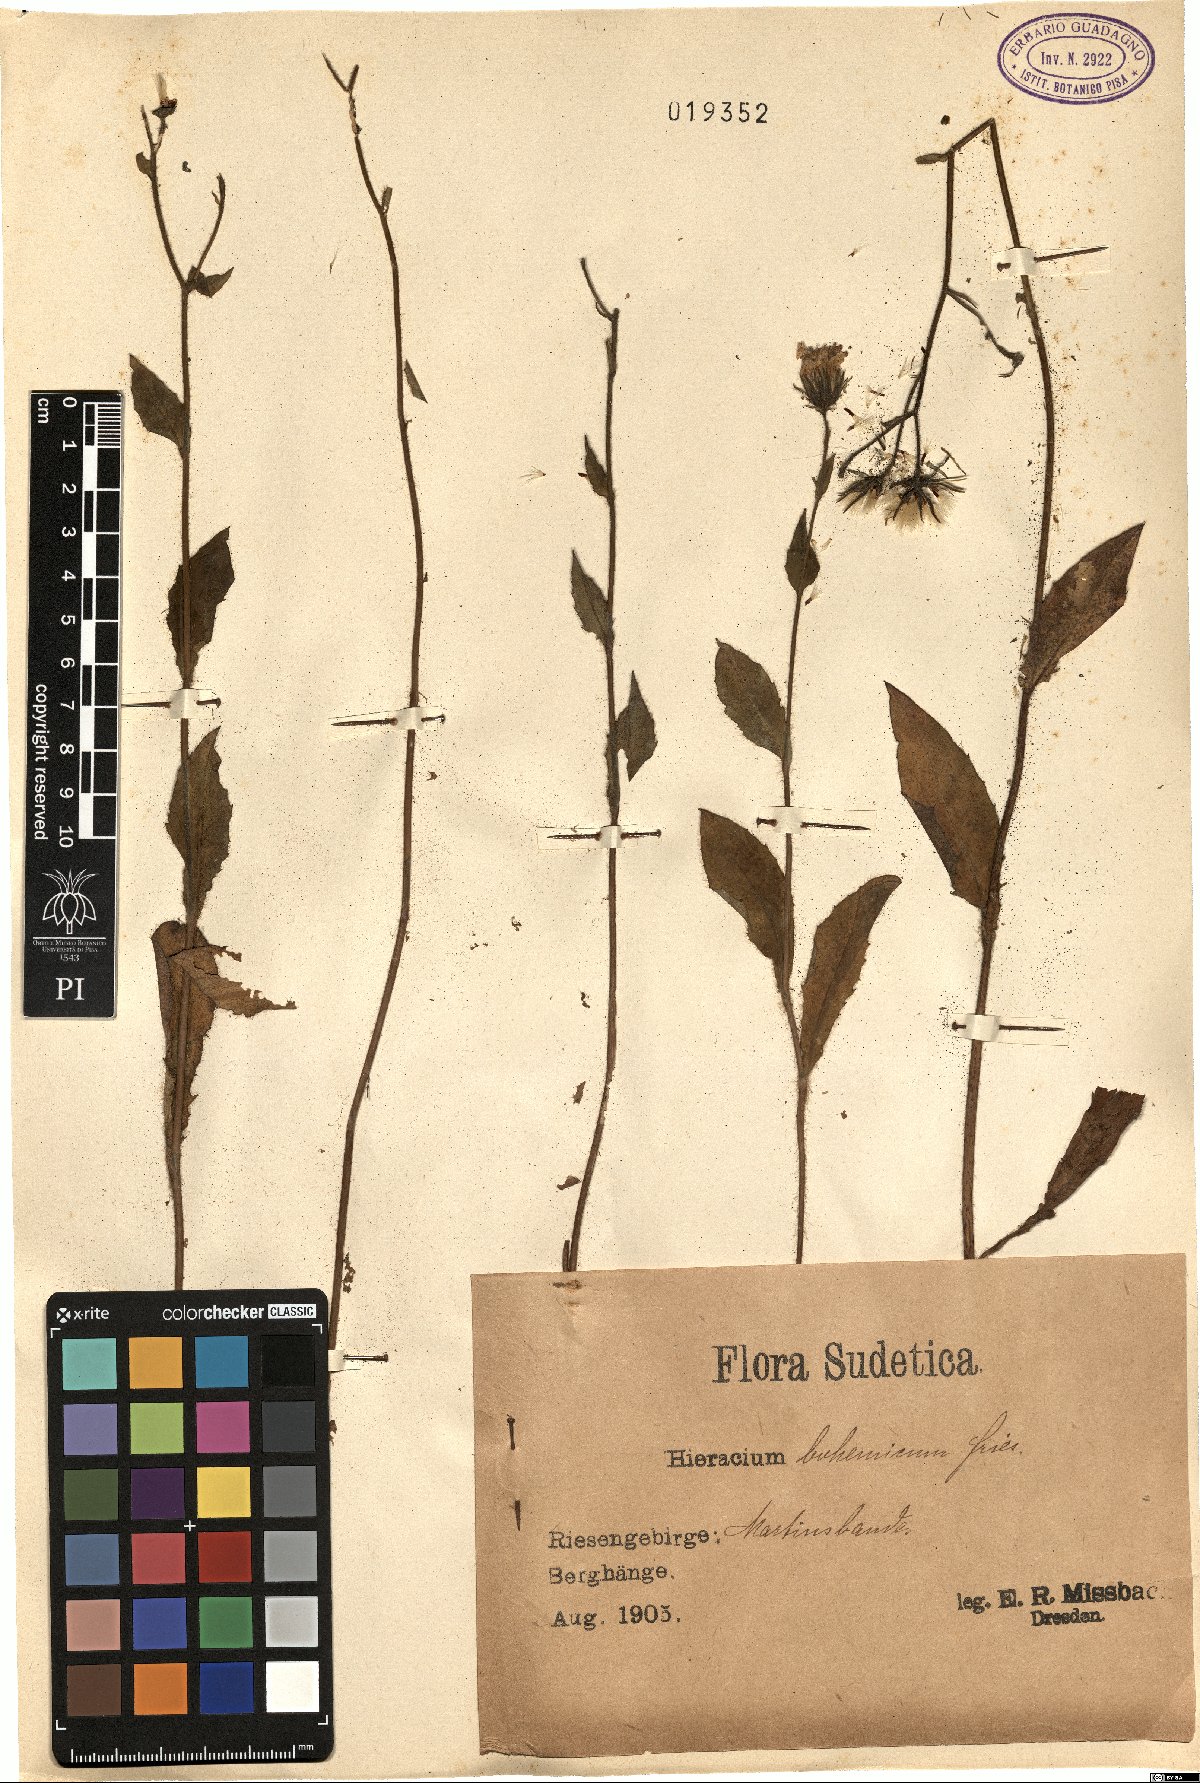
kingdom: Plantae
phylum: Tracheophyta
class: Magnoliopsida
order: Asterales
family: Asteraceae
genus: Hieracium
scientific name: Hieracium sudeticum
